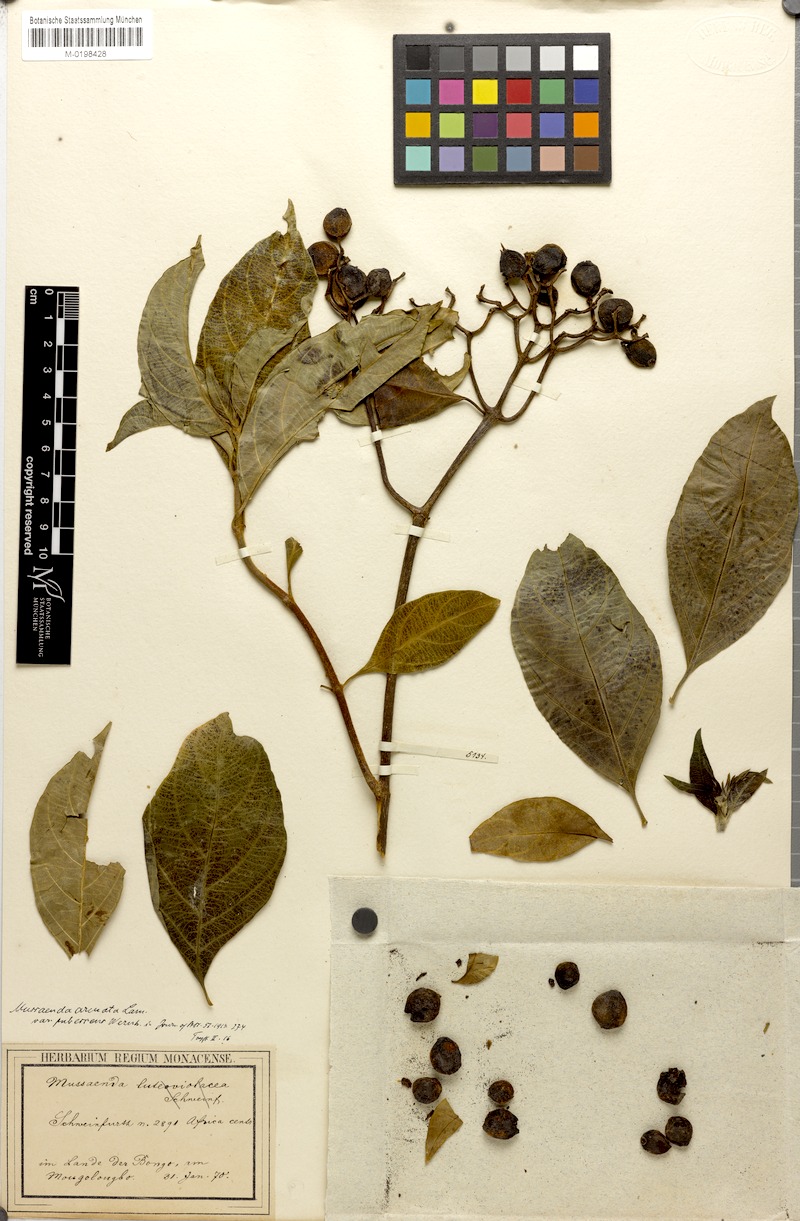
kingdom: Plantae
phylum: Tracheophyta
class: Magnoliopsida
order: Gentianales
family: Rubiaceae
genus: Mussaenda
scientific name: Mussaenda arcuata
